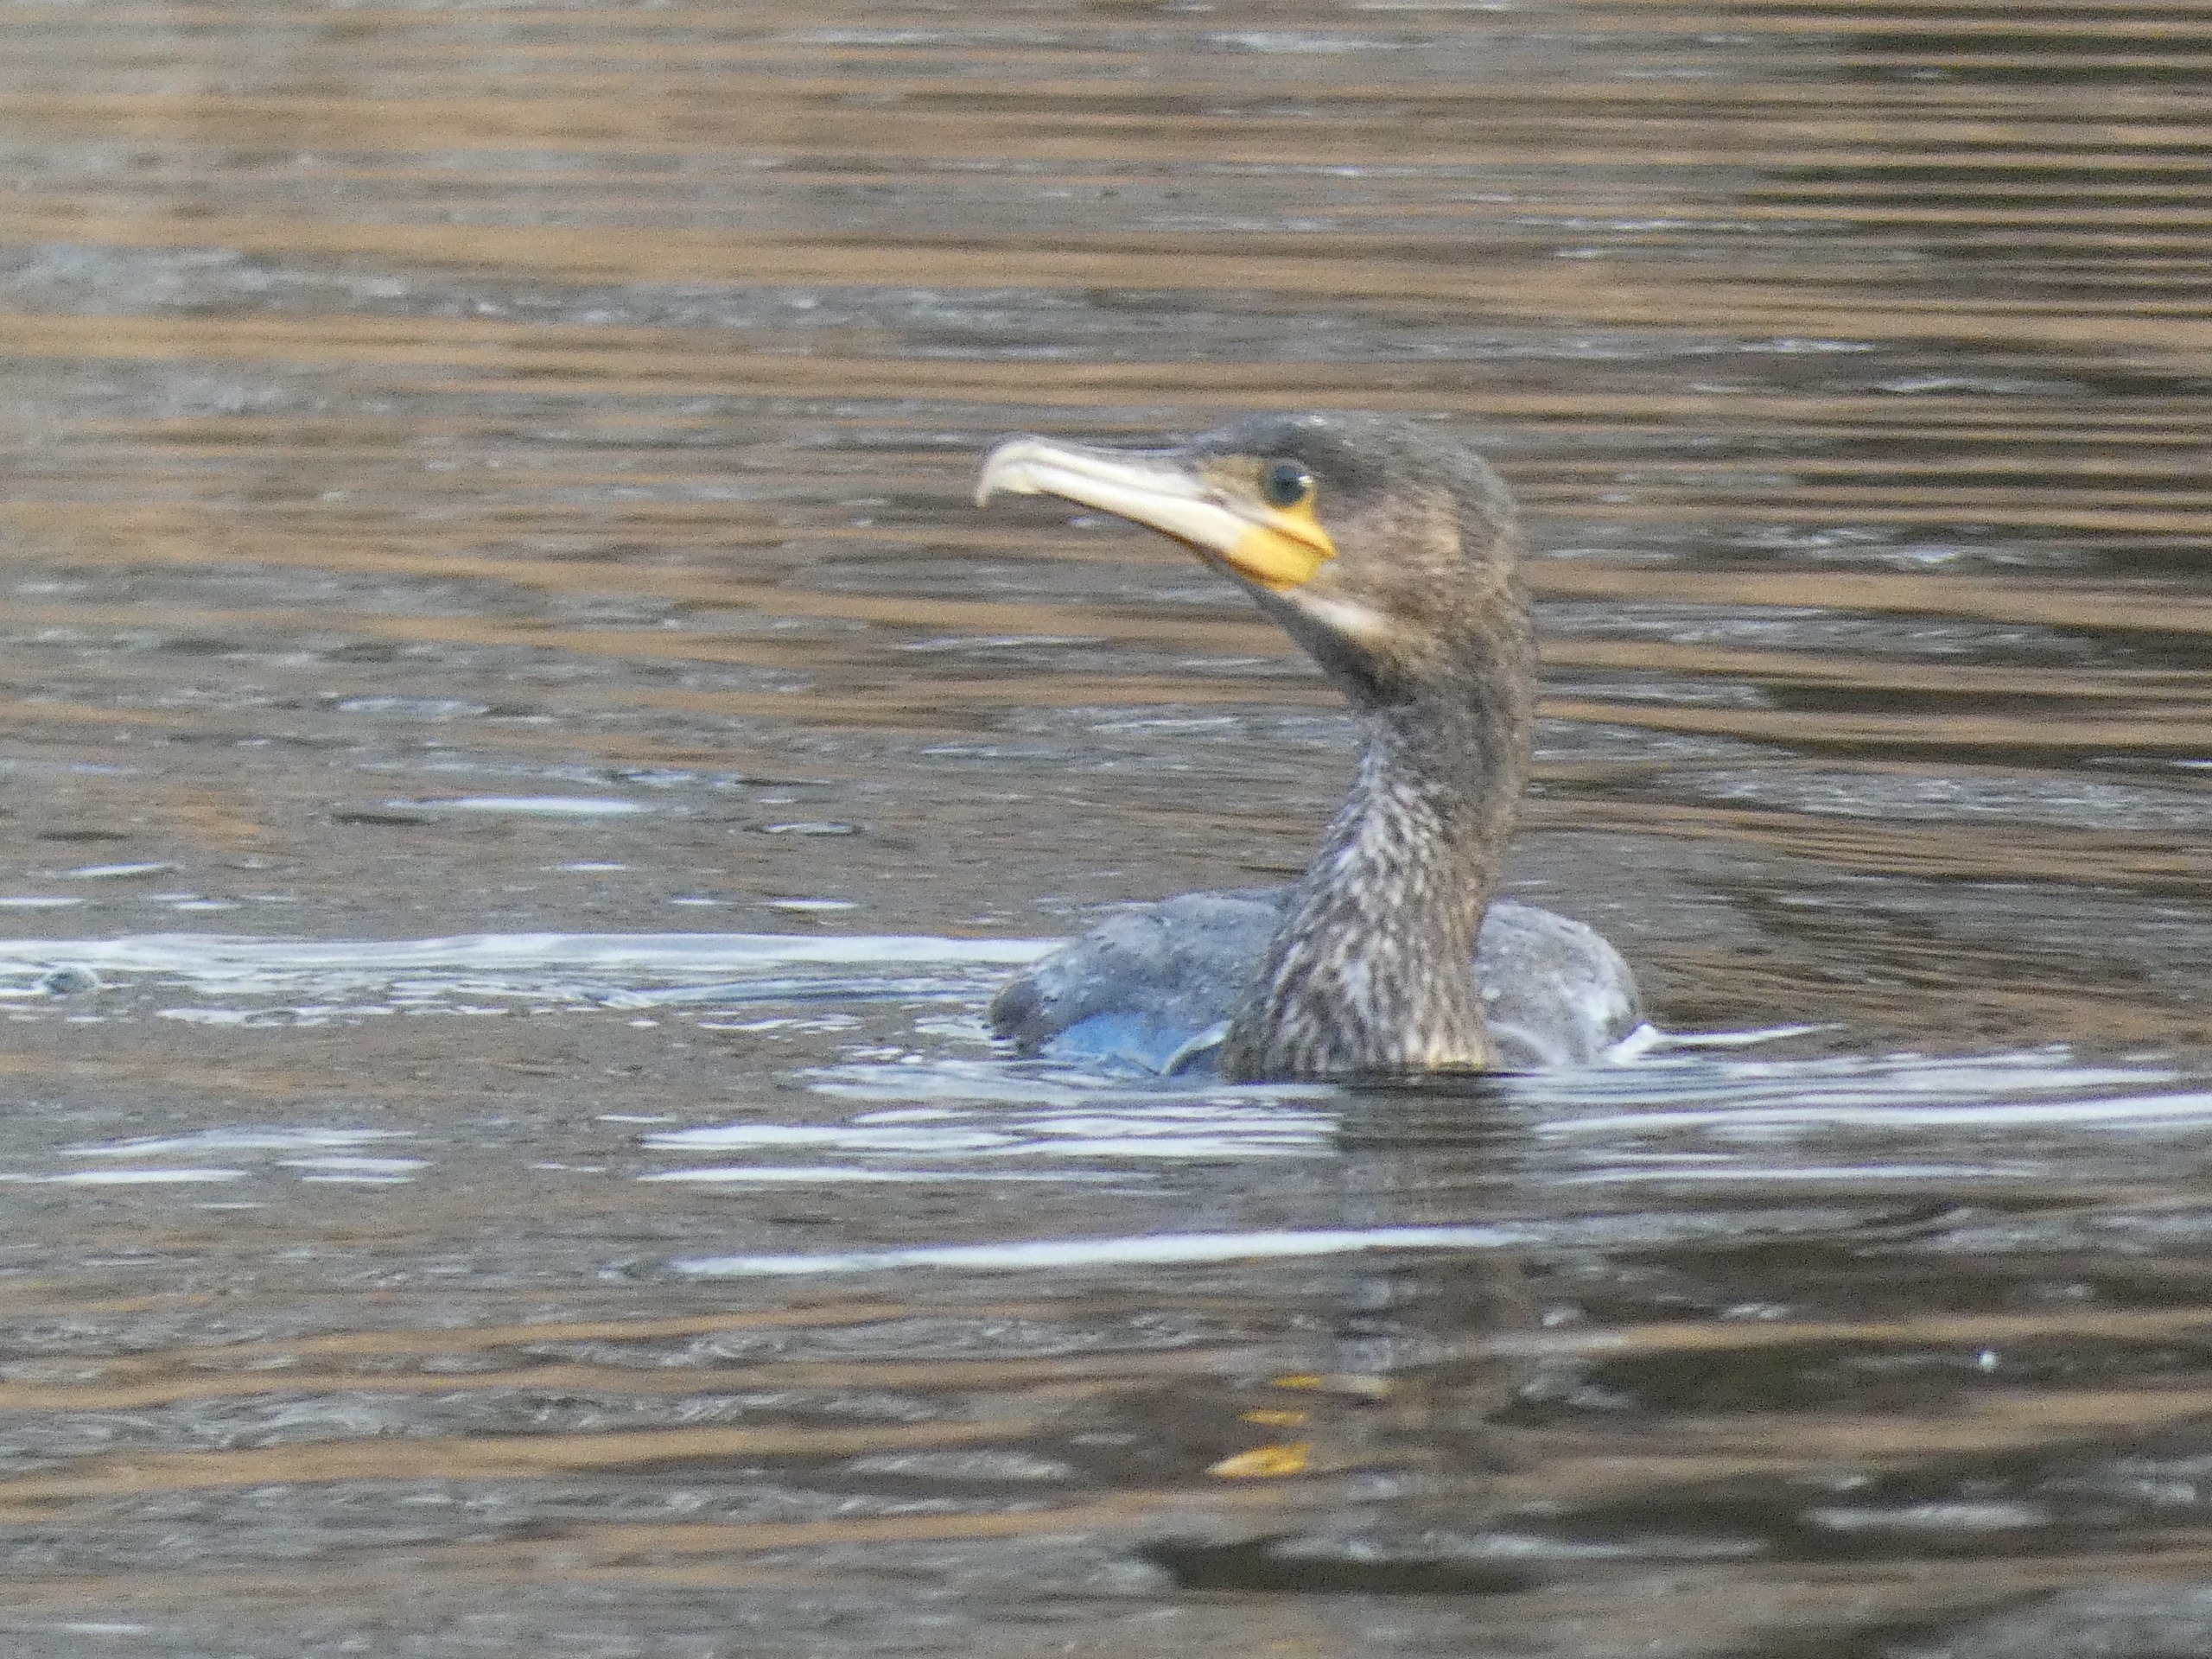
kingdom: Animalia
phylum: Chordata
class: Aves
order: Suliformes
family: Phalacrocoracidae
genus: Phalacrocorax
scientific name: Phalacrocorax carbo
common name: Skarv
